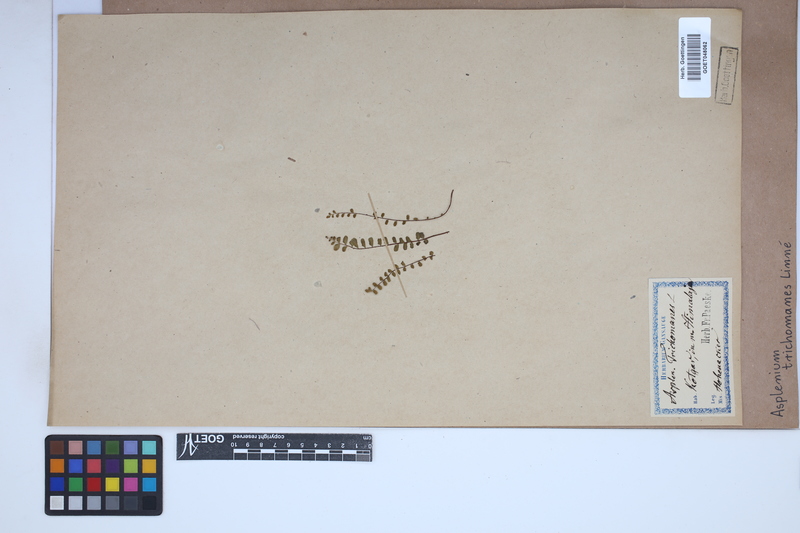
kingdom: Plantae
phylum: Tracheophyta
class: Polypodiopsida
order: Polypodiales
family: Aspleniaceae
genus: Asplenium
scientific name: Asplenium trichomanes
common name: Maidenhair spleenwort
